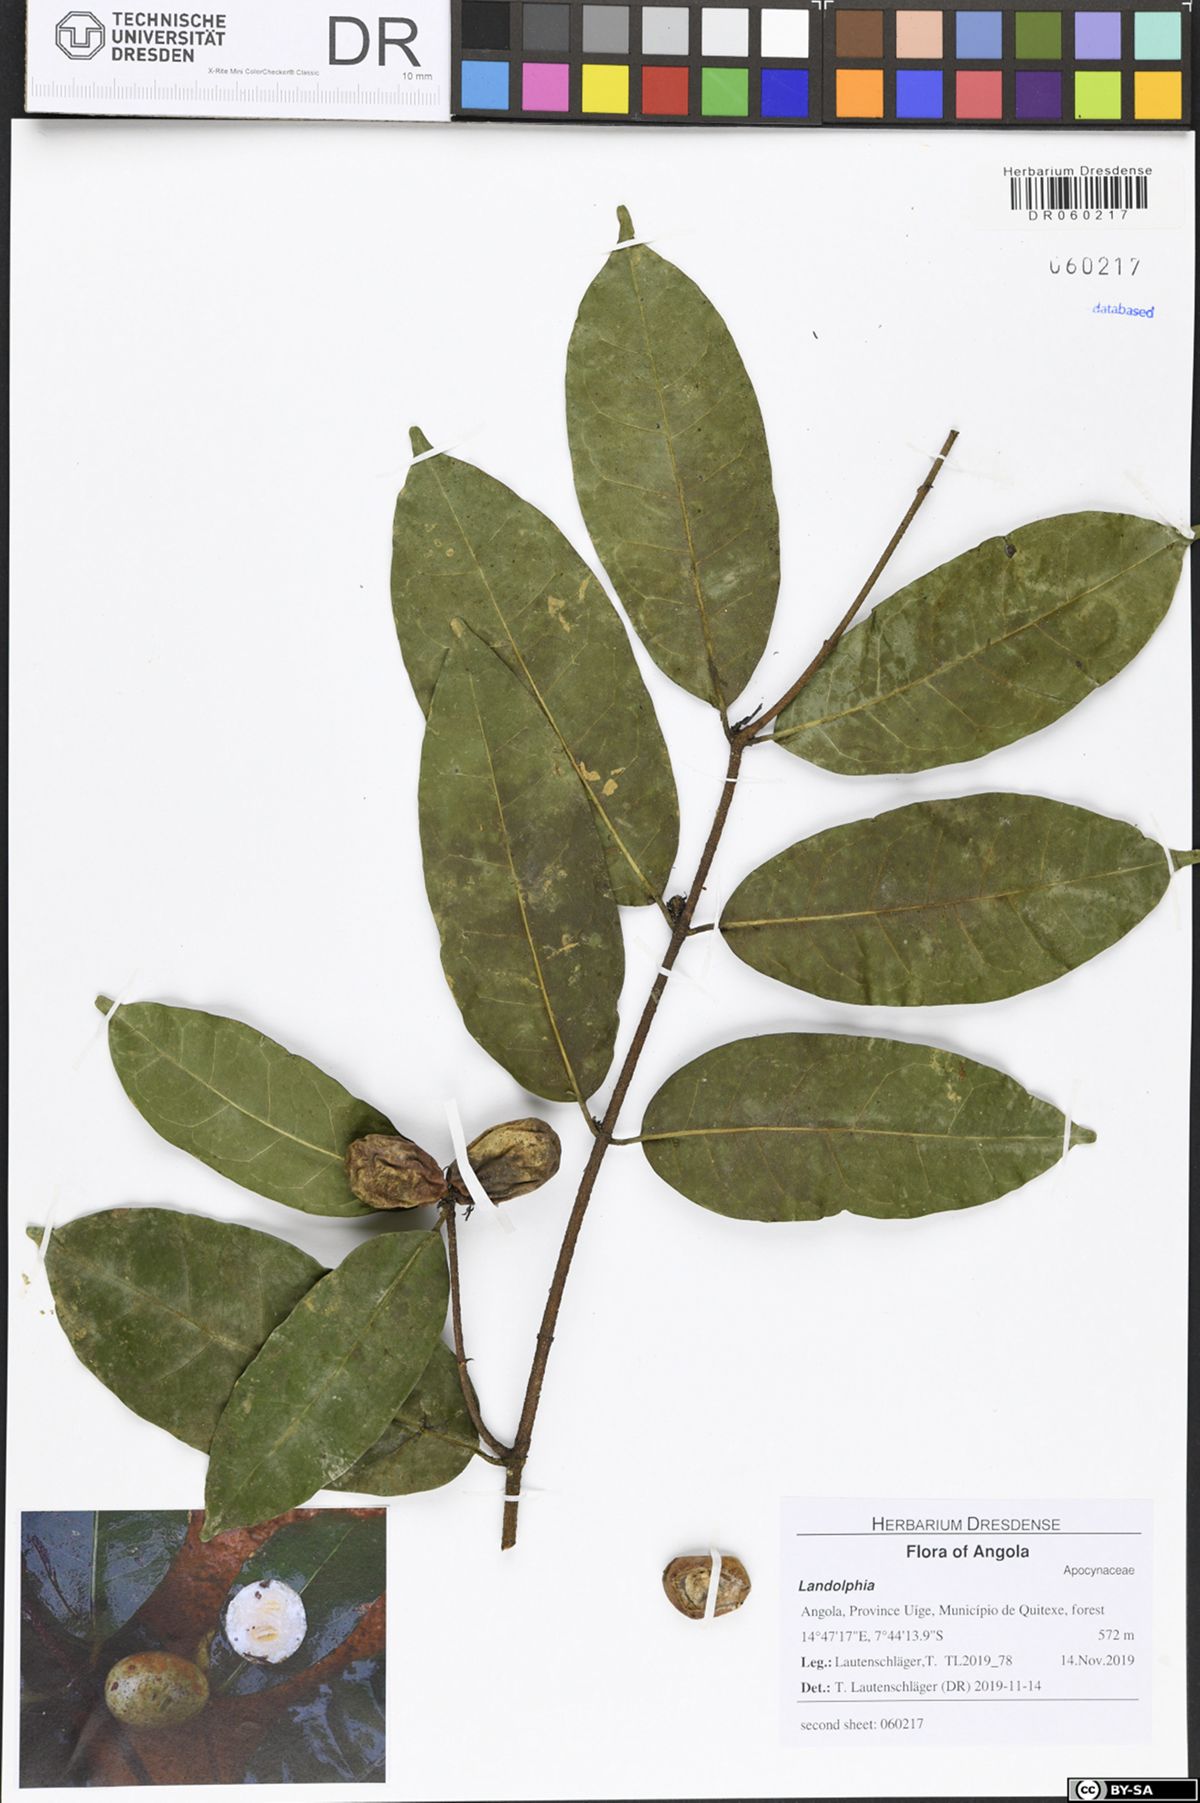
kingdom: Plantae
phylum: Tracheophyta
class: Magnoliopsida
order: Gentianales
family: Apocynaceae
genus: Landolphia
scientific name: Landolphia robustior
